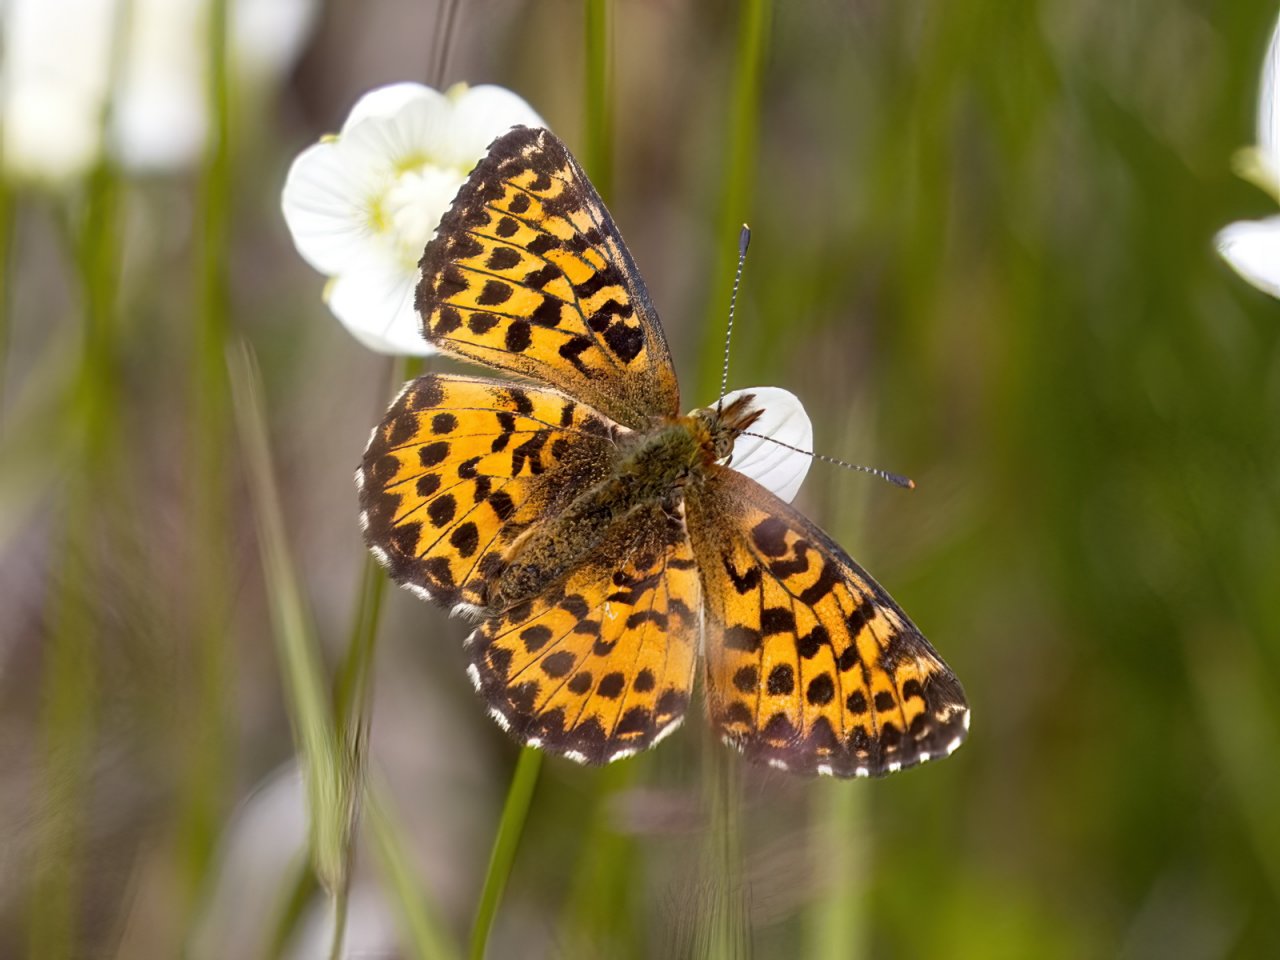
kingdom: Animalia
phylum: Arthropoda
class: Insecta
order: Lepidoptera
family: Nymphalidae
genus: Boloria
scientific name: Boloria chariclea
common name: Arctic Fritillary
